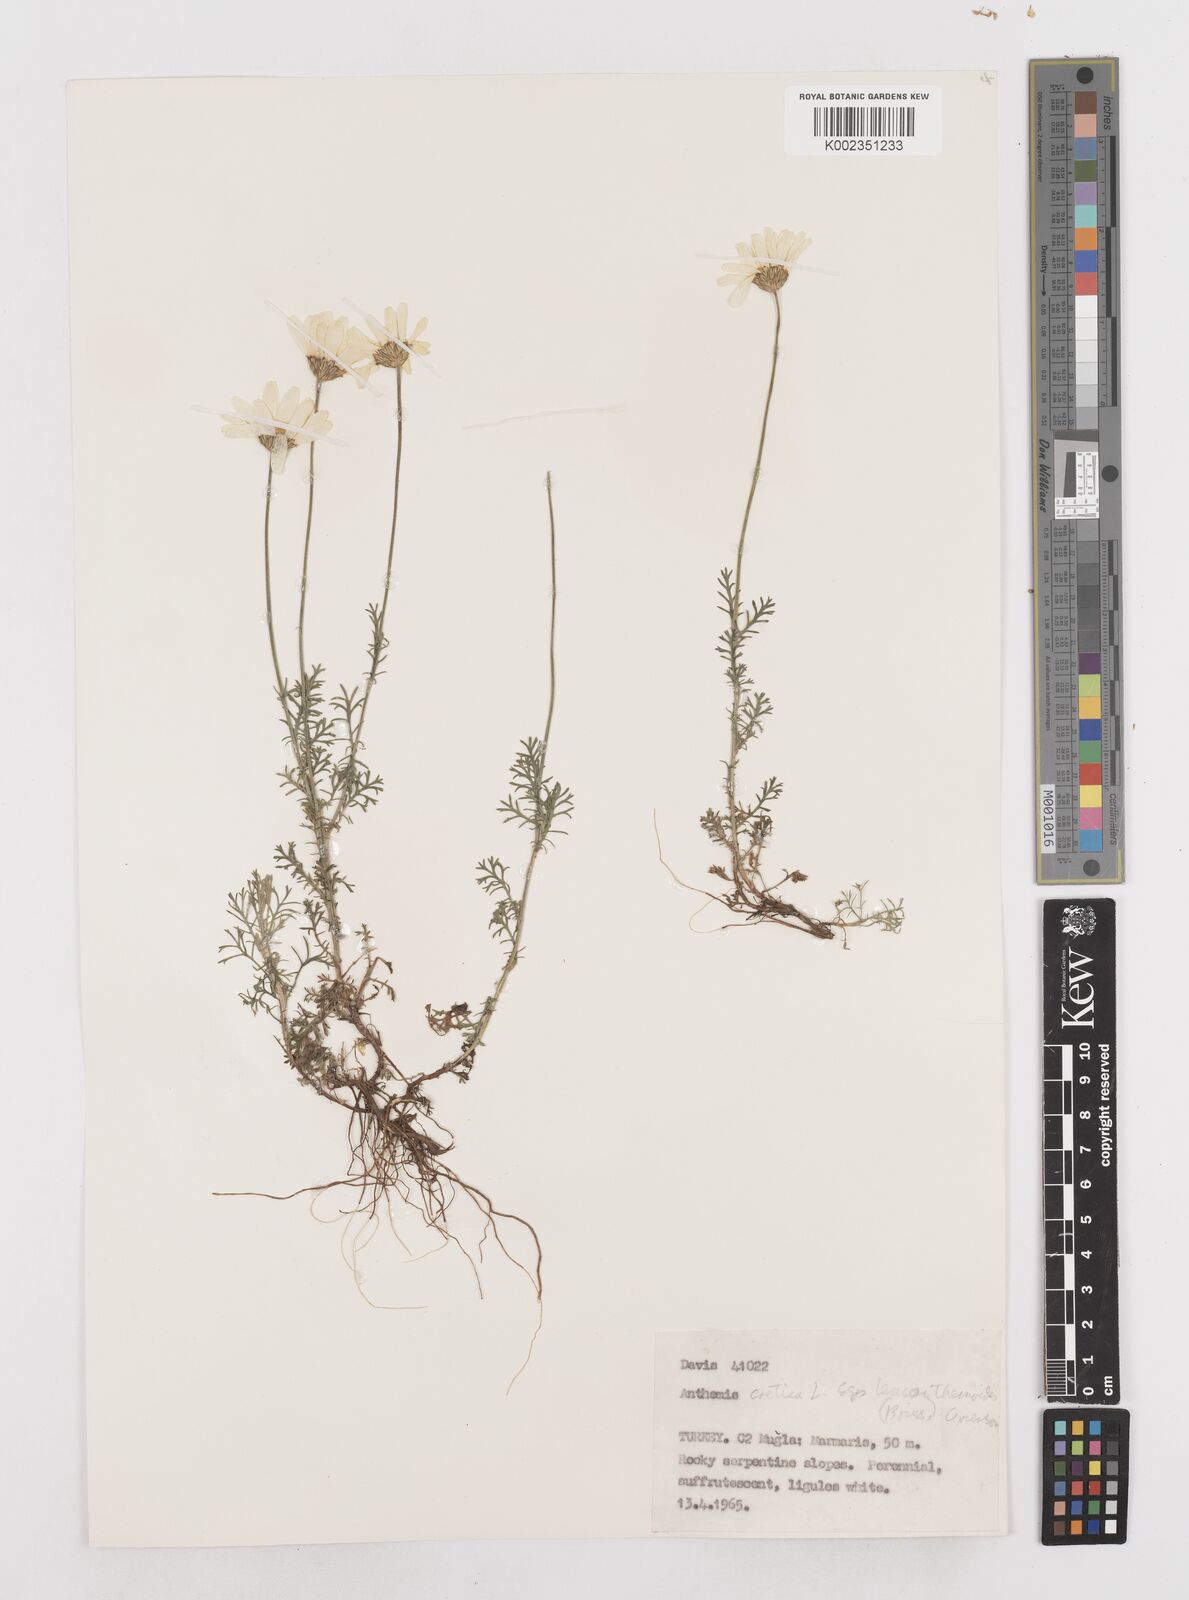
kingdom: Plantae
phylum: Tracheophyta
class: Magnoliopsida
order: Asterales
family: Asteraceae
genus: Anthemis
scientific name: Anthemis cretica
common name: Mountain dog-daisy
